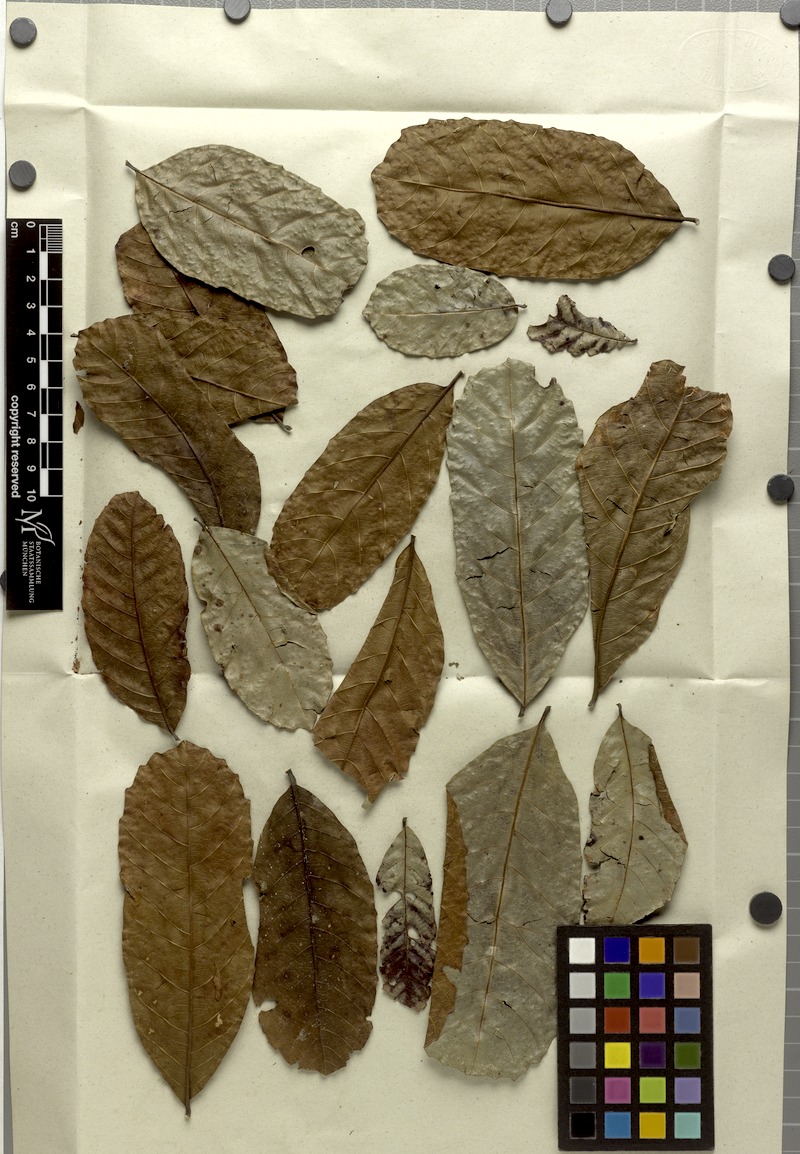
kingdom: Plantae
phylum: Tracheophyta
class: Magnoliopsida
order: Sapindales
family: Sapindaceae
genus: Cupania
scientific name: Cupania oblongifolia
